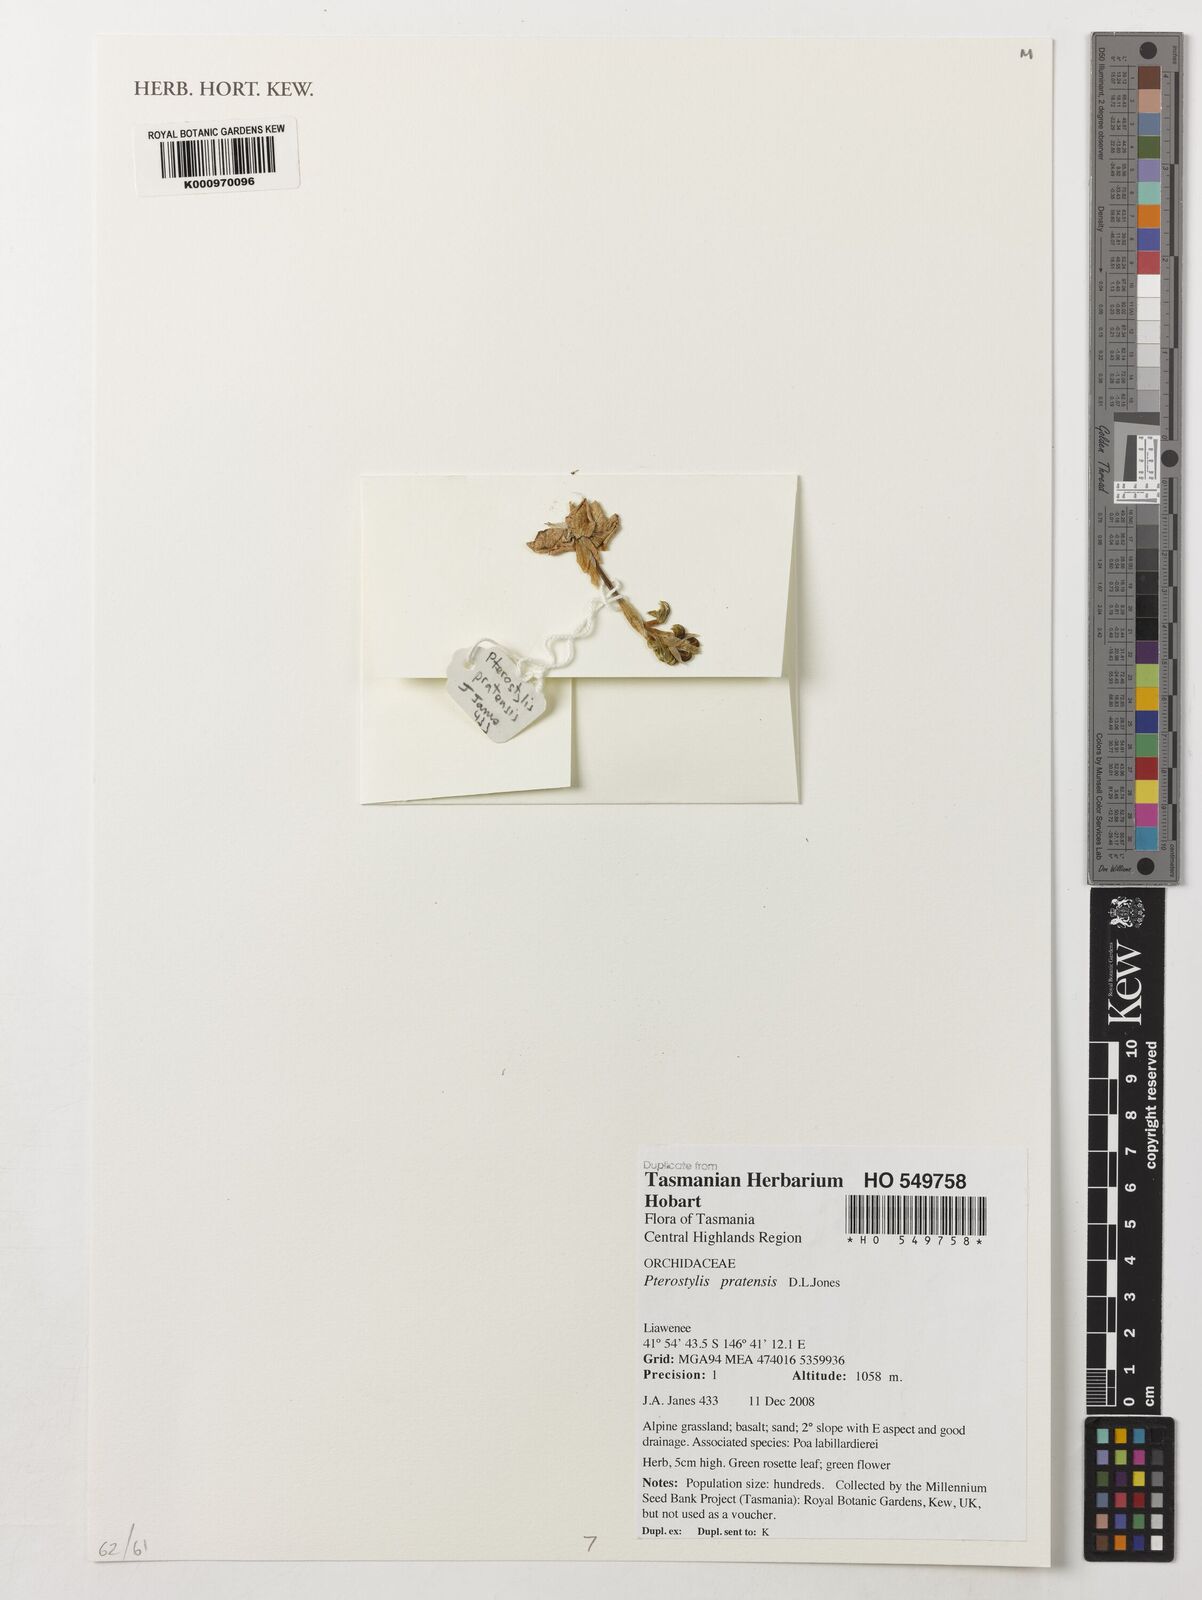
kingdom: Plantae
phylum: Tracheophyta
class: Liliopsida
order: Asparagales
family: Orchidaceae
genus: Pterostylis
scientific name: Pterostylis pratensis
